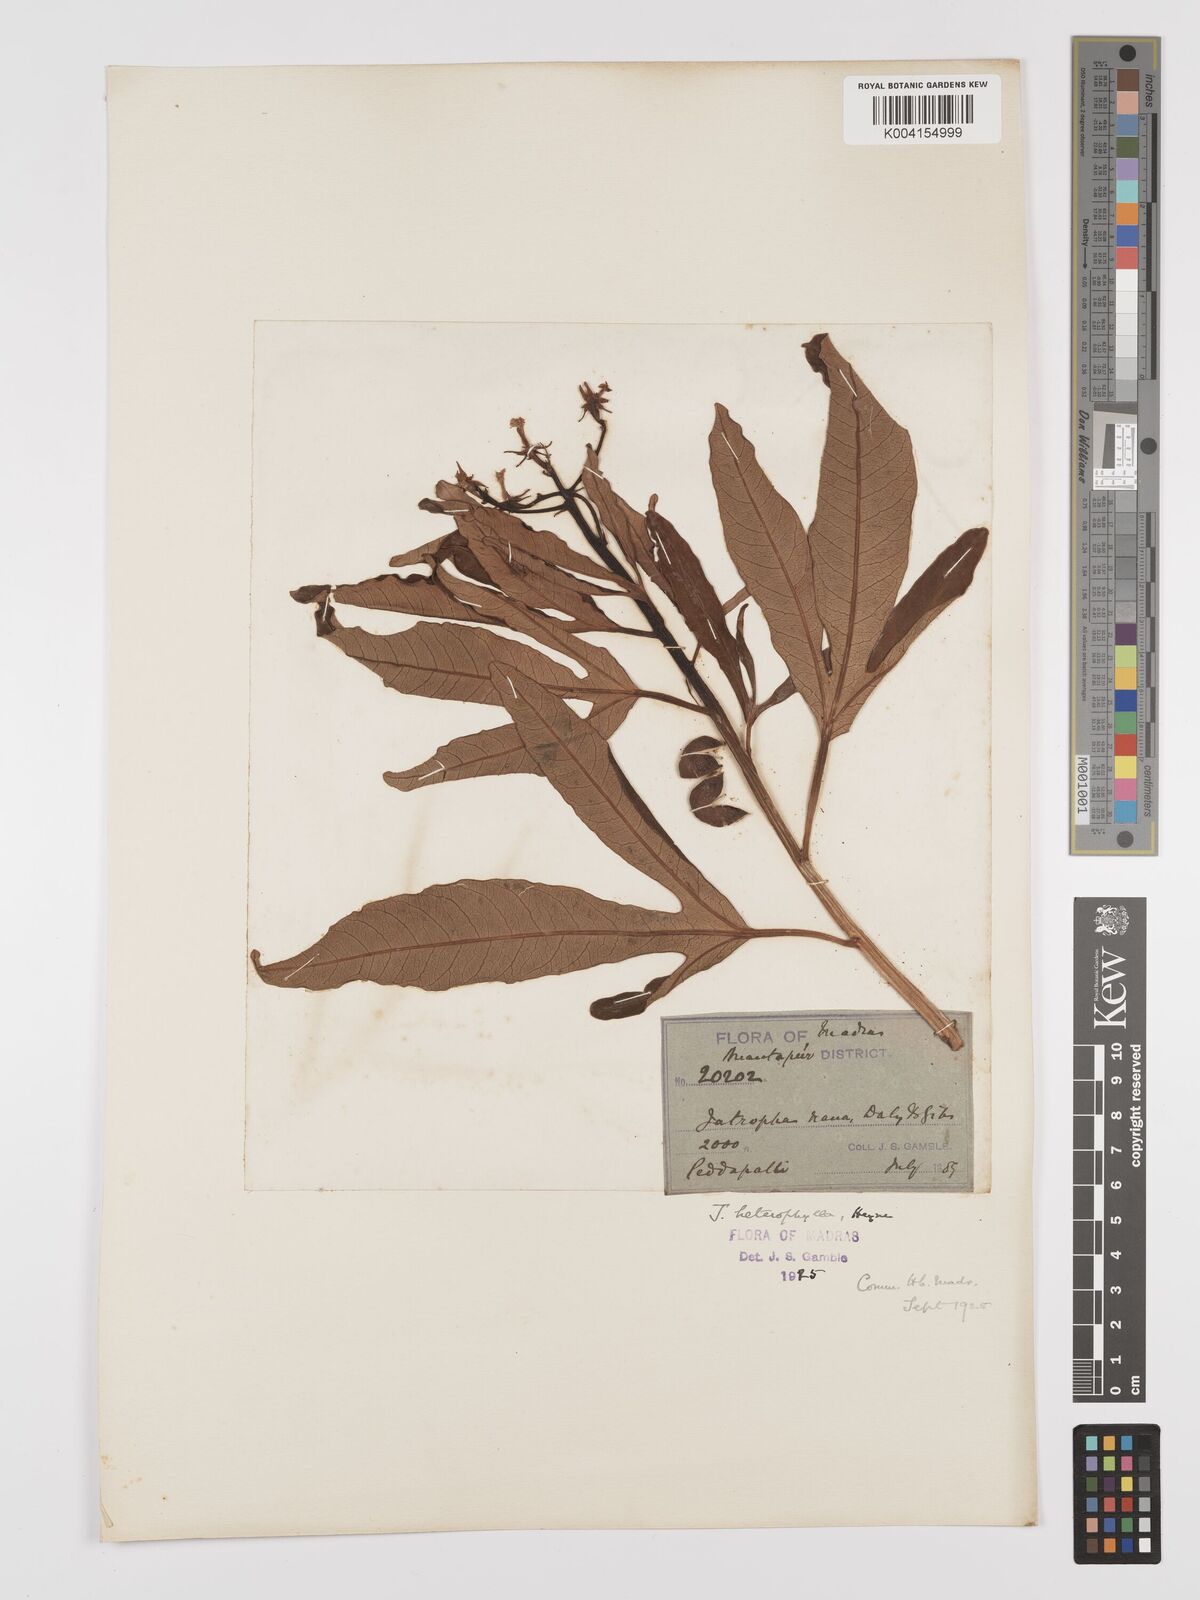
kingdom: Plantae
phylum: Tracheophyta
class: Magnoliopsida
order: Malpighiales
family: Euphorbiaceae
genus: Jatropha
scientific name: Jatropha
